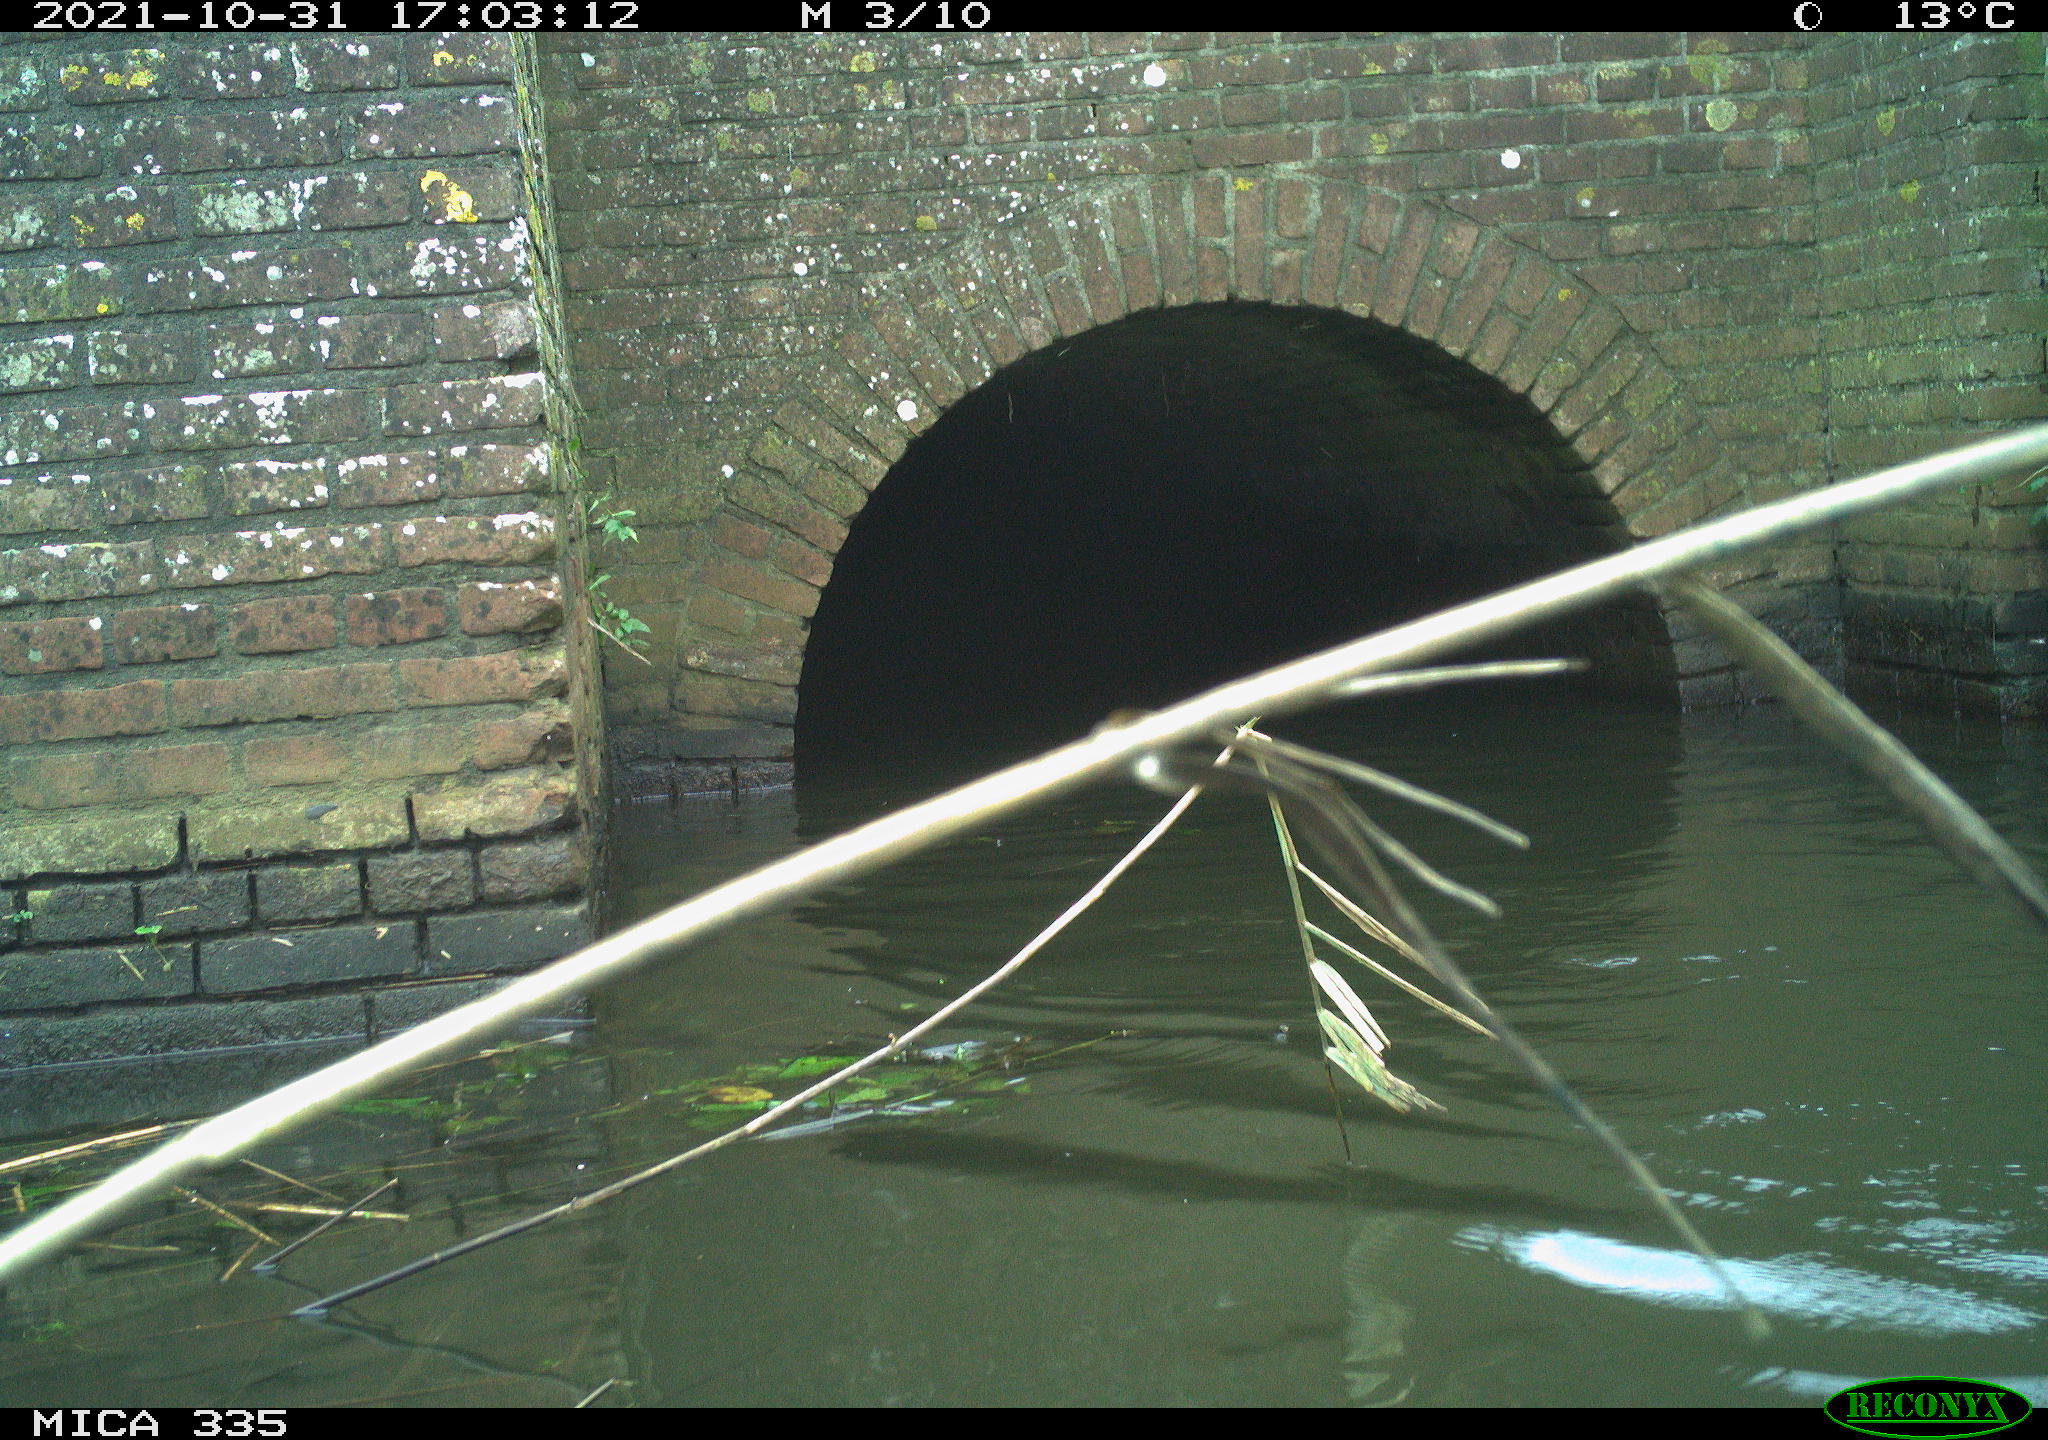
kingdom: Animalia
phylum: Chordata
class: Aves
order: Anseriformes
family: Anatidae
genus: Anas
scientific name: Anas platyrhynchos
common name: Mallard
